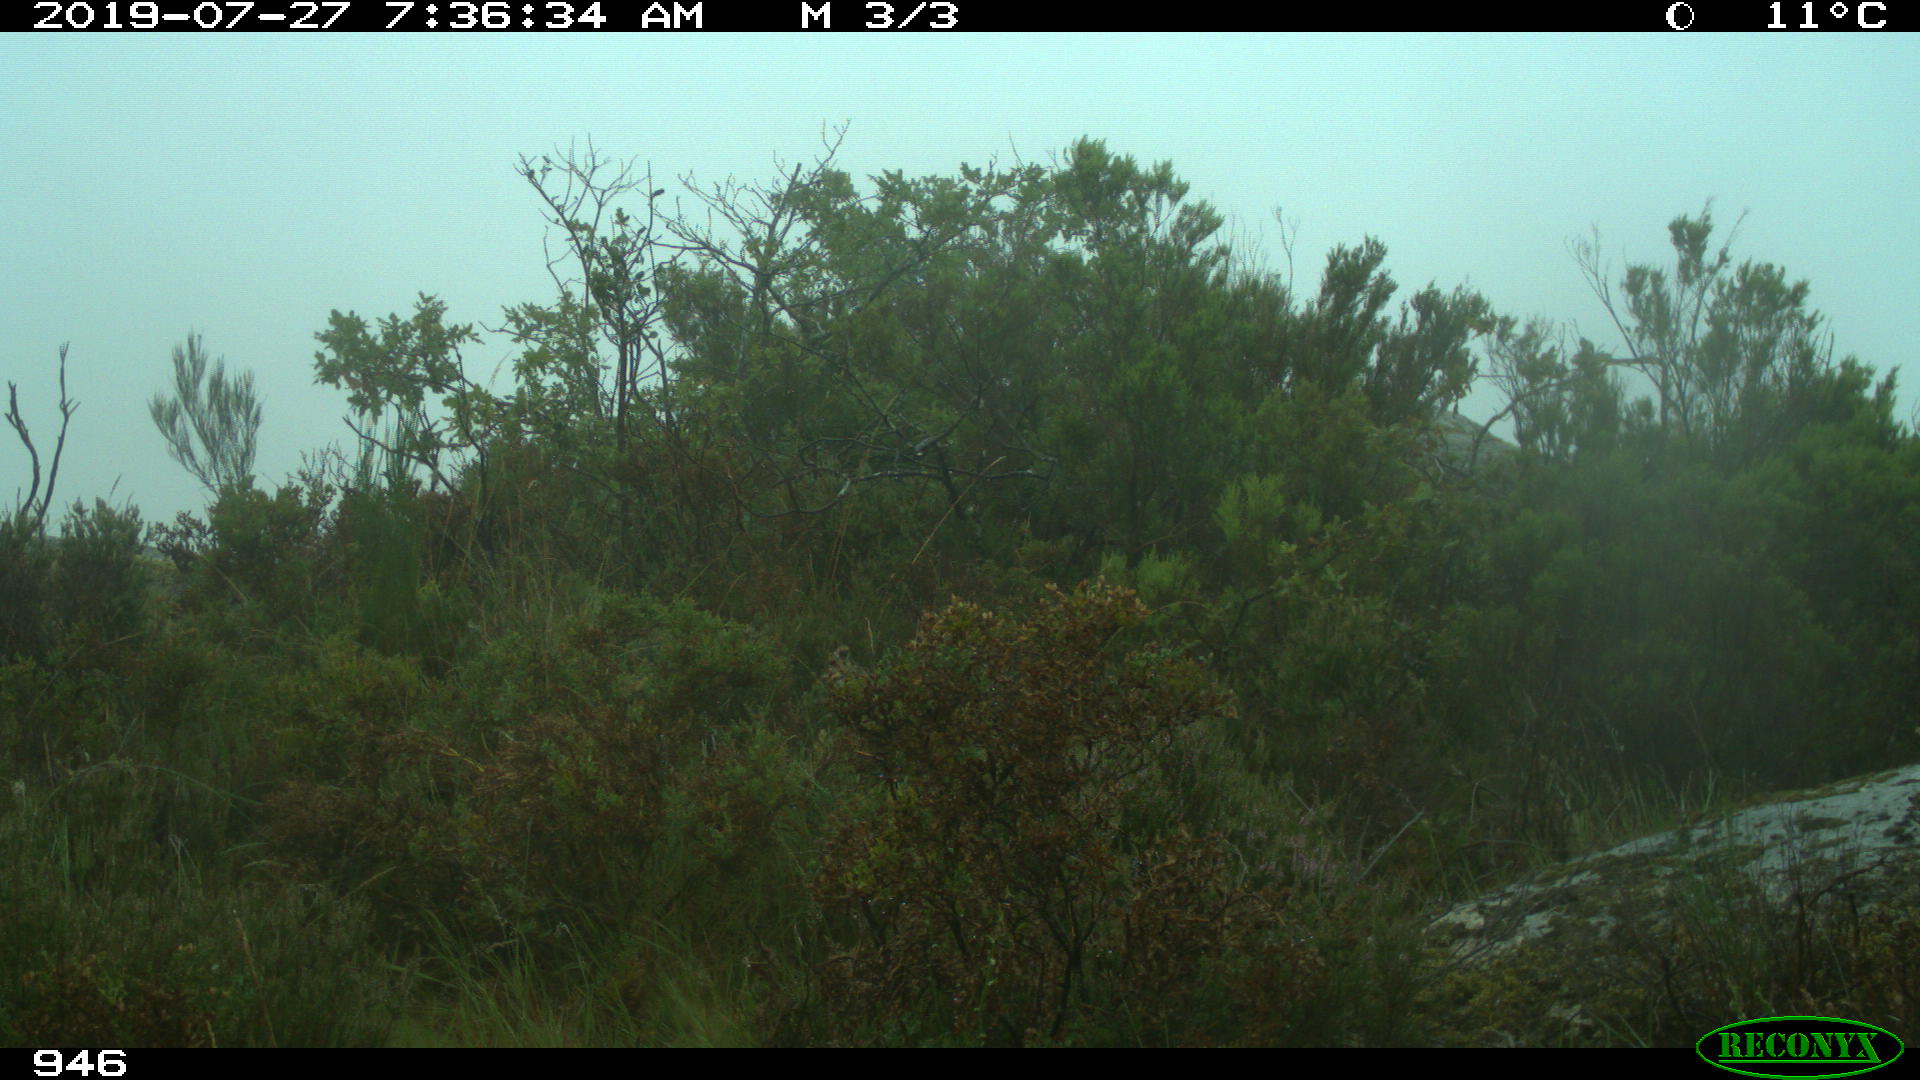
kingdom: Animalia
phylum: Chordata
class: Mammalia
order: Artiodactyla
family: Cervidae
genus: Capreolus
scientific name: Capreolus capreolus
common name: Western roe deer
